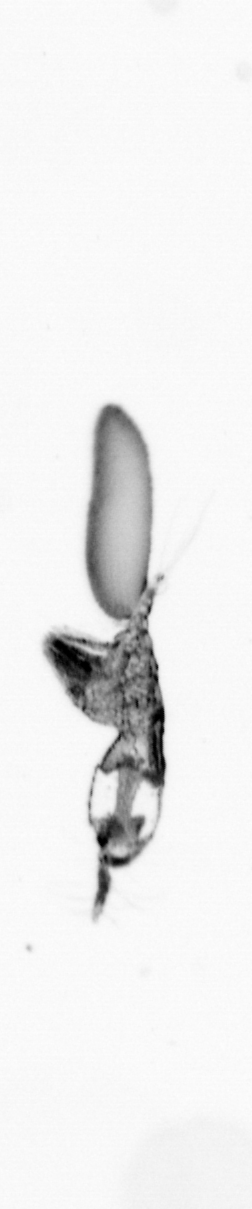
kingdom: Animalia
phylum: Arthropoda
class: Copepoda
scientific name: Copepoda
